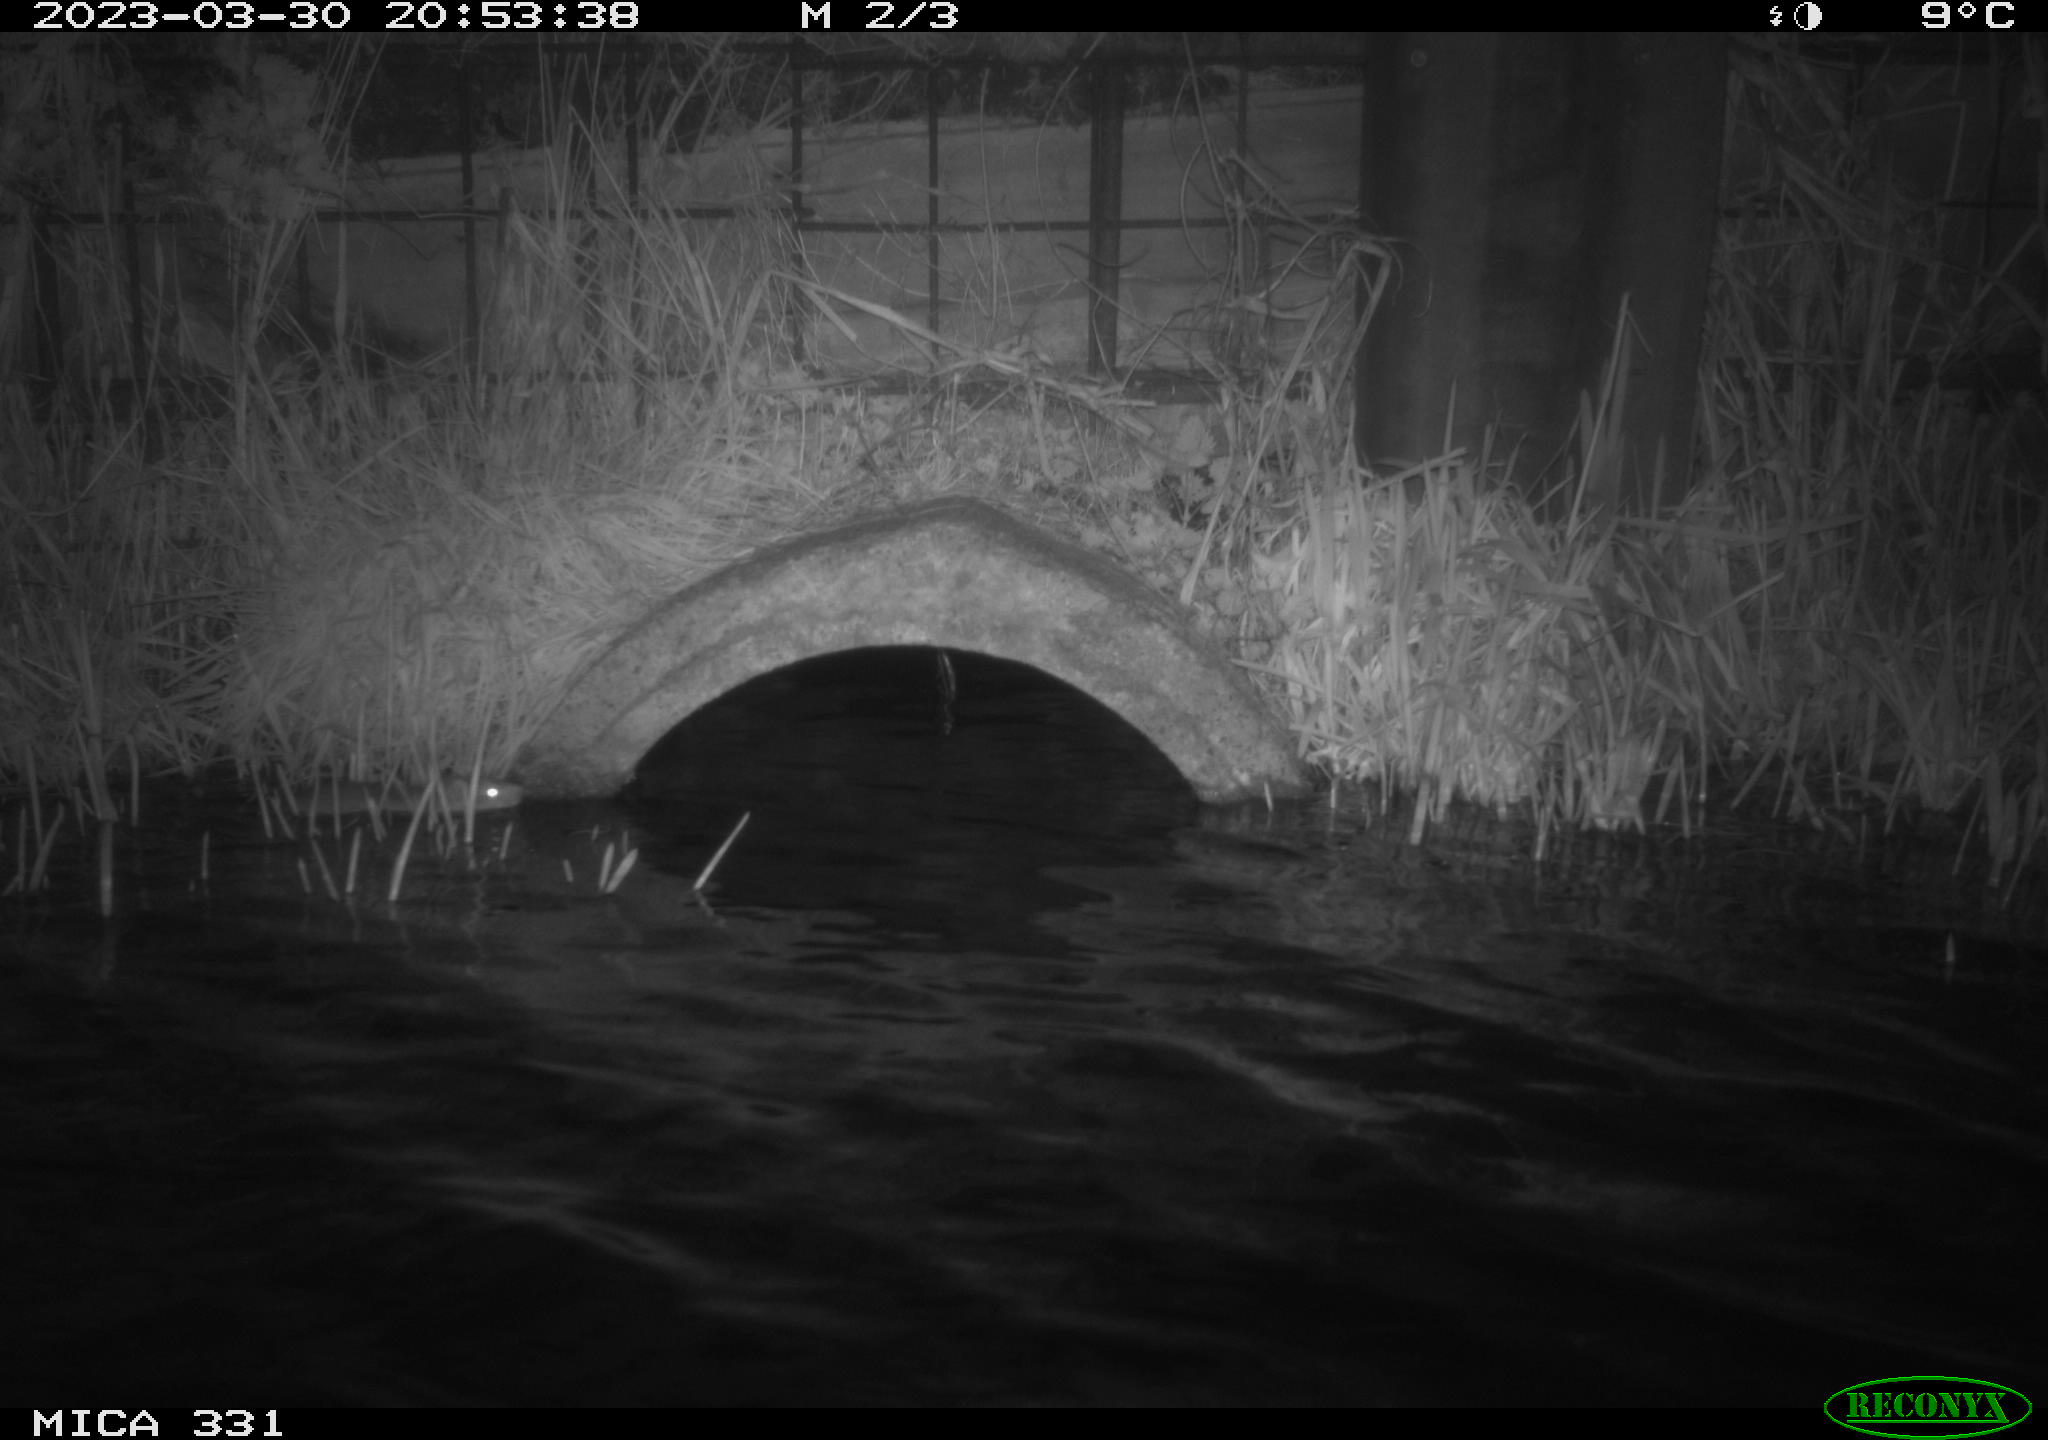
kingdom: Animalia
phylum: Chordata
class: Mammalia
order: Rodentia
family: Muridae
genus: Rattus
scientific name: Rattus norvegicus
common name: Brown rat
